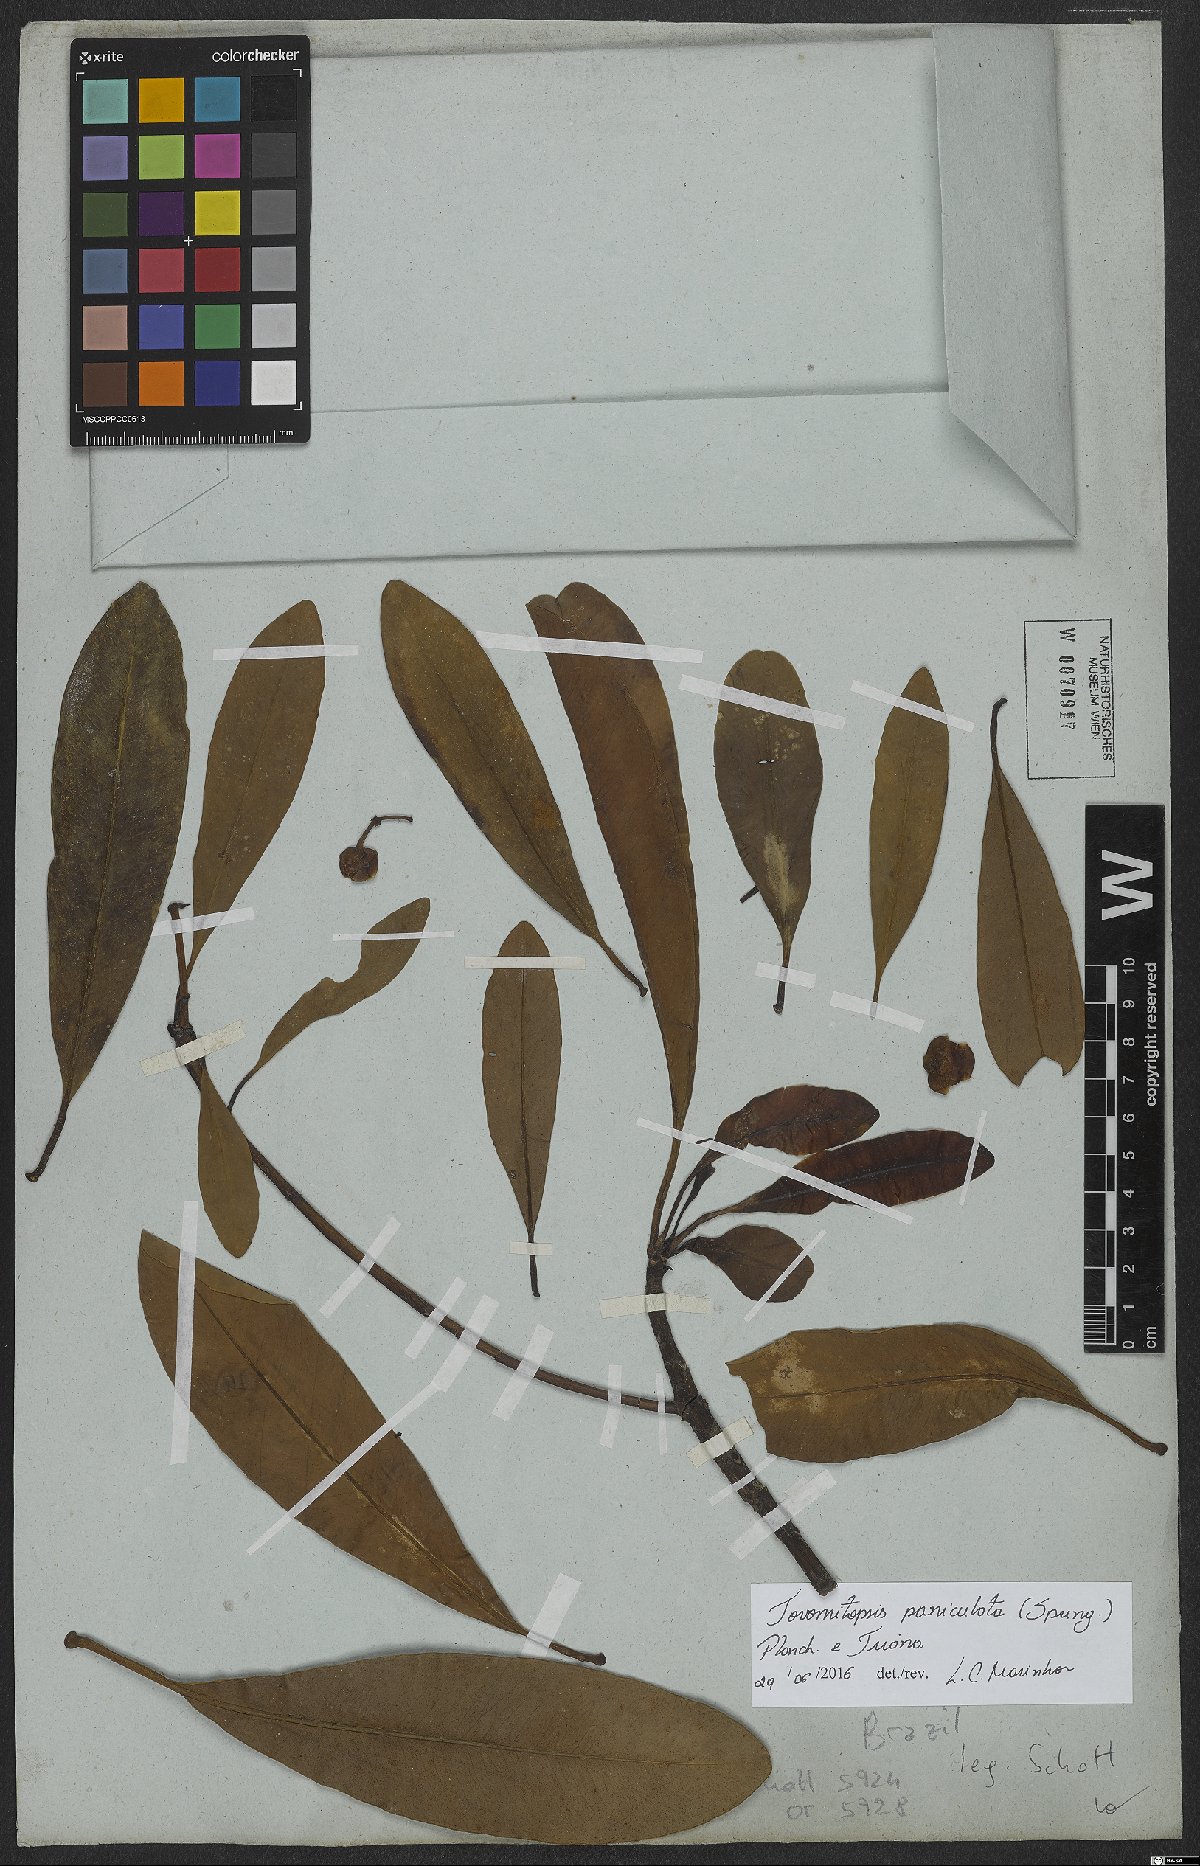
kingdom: Plantae
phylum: Tracheophyta
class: Magnoliopsida
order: Malpighiales
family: Clusiaceae
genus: Chrysochlamys
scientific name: Chrysochlamys paniculata
